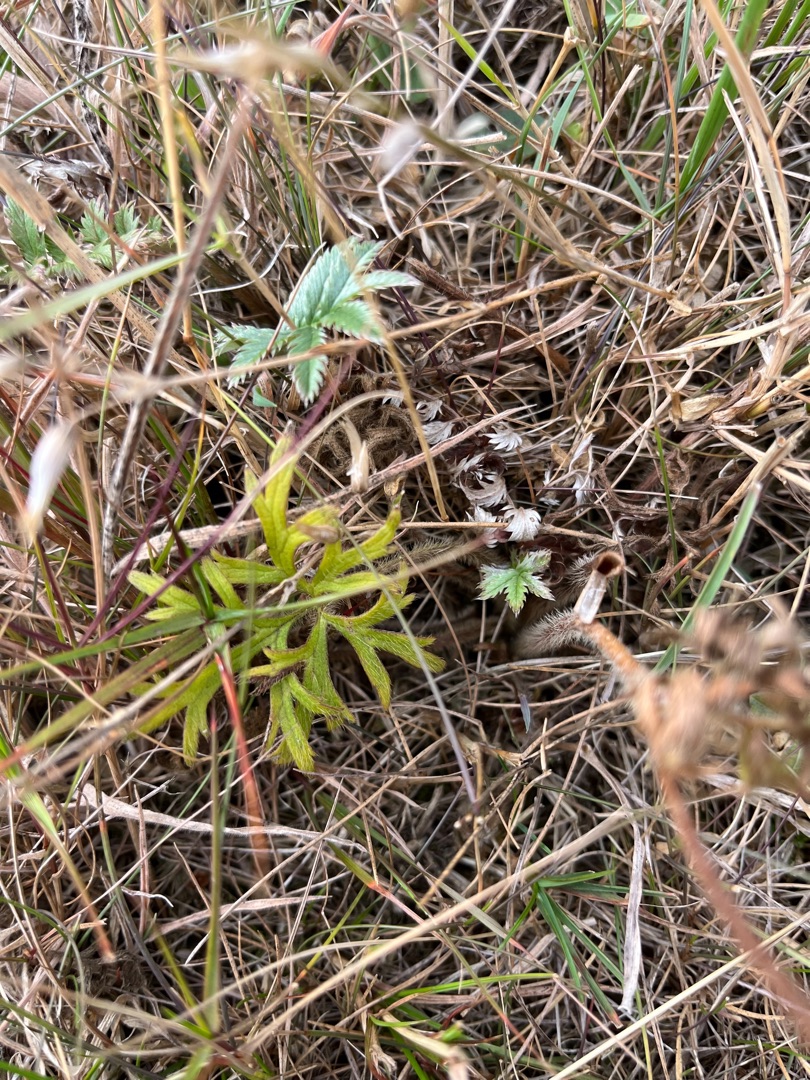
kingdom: Plantae
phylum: Tracheophyta
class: Magnoliopsida
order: Ranunculales
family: Ranunculaceae
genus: Ranunculus
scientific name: Ranunculus polyanthemos
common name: Mangeblomstret ranunkel
